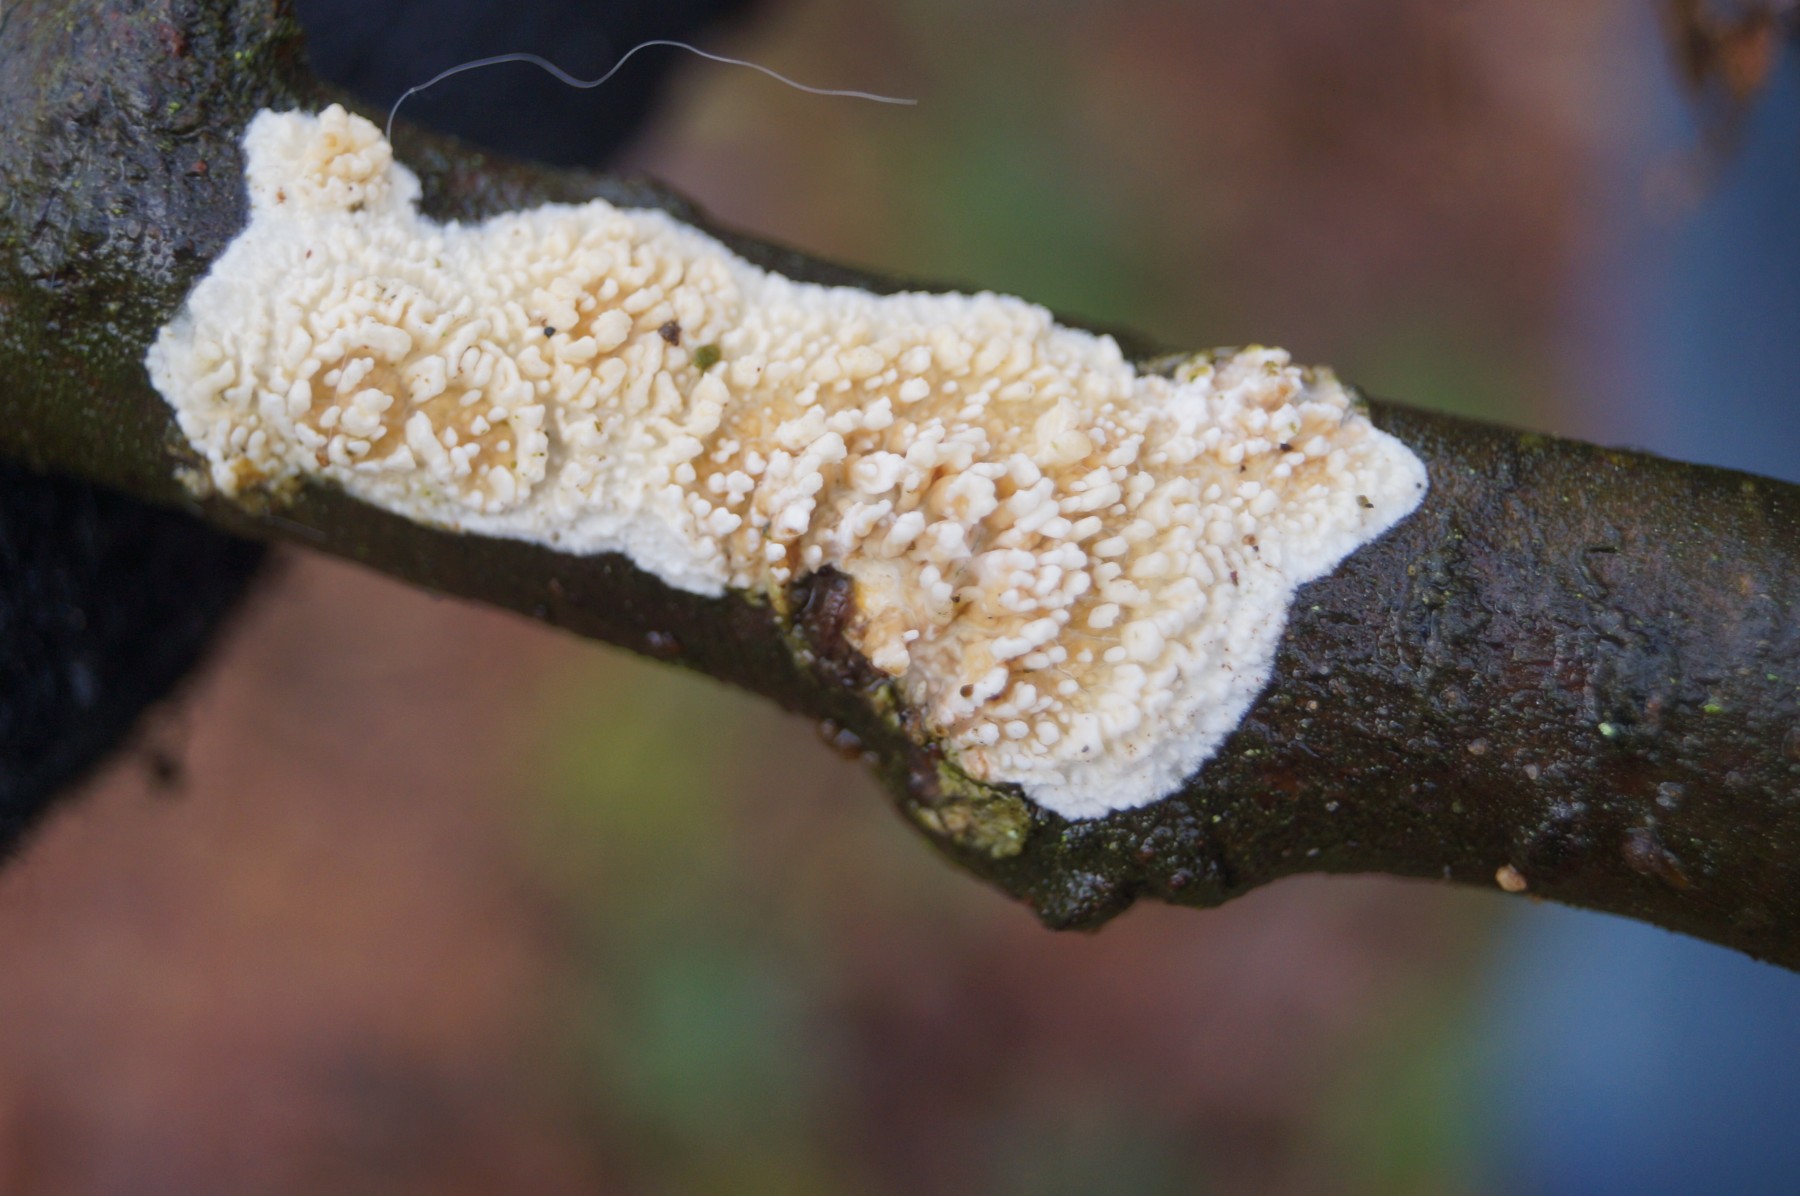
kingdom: Fungi
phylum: Basidiomycota
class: Agaricomycetes
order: Hymenochaetales
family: Schizoporaceae
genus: Xylodon
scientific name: Xylodon radula
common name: grovtandet kalkskind
